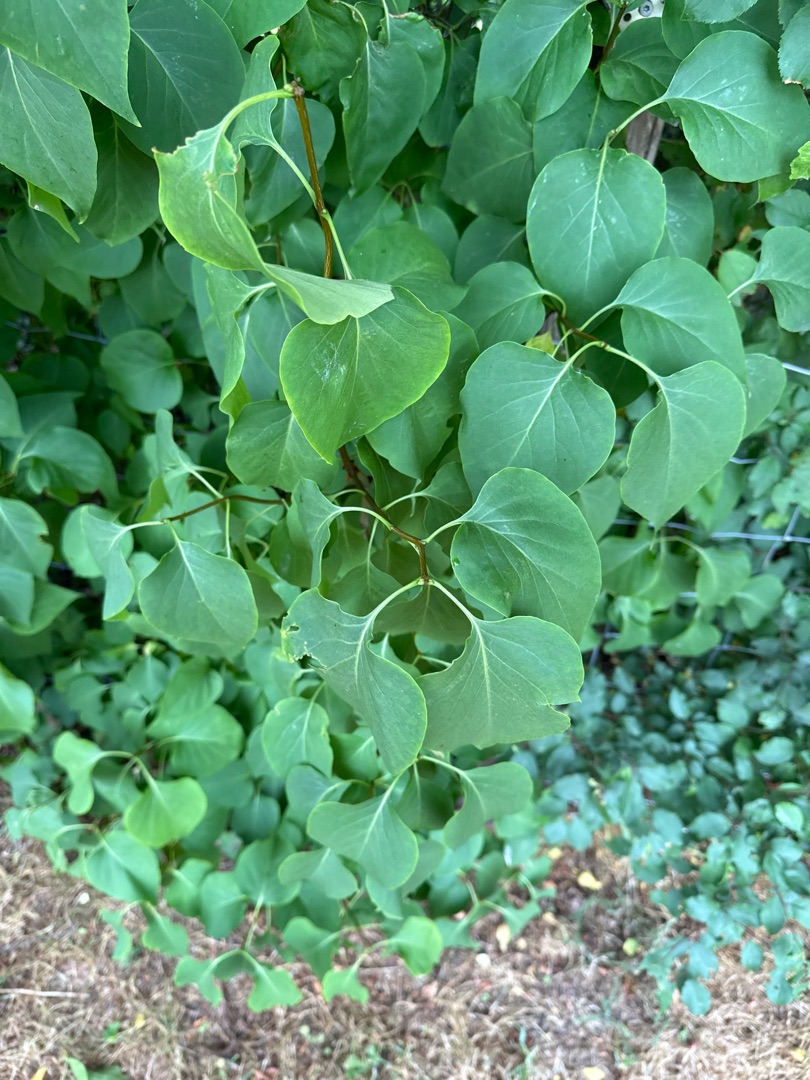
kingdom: Plantae
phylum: Tracheophyta
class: Magnoliopsida
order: Lamiales
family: Oleaceae
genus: Syringa
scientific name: Syringa vulgaris
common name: Syren
